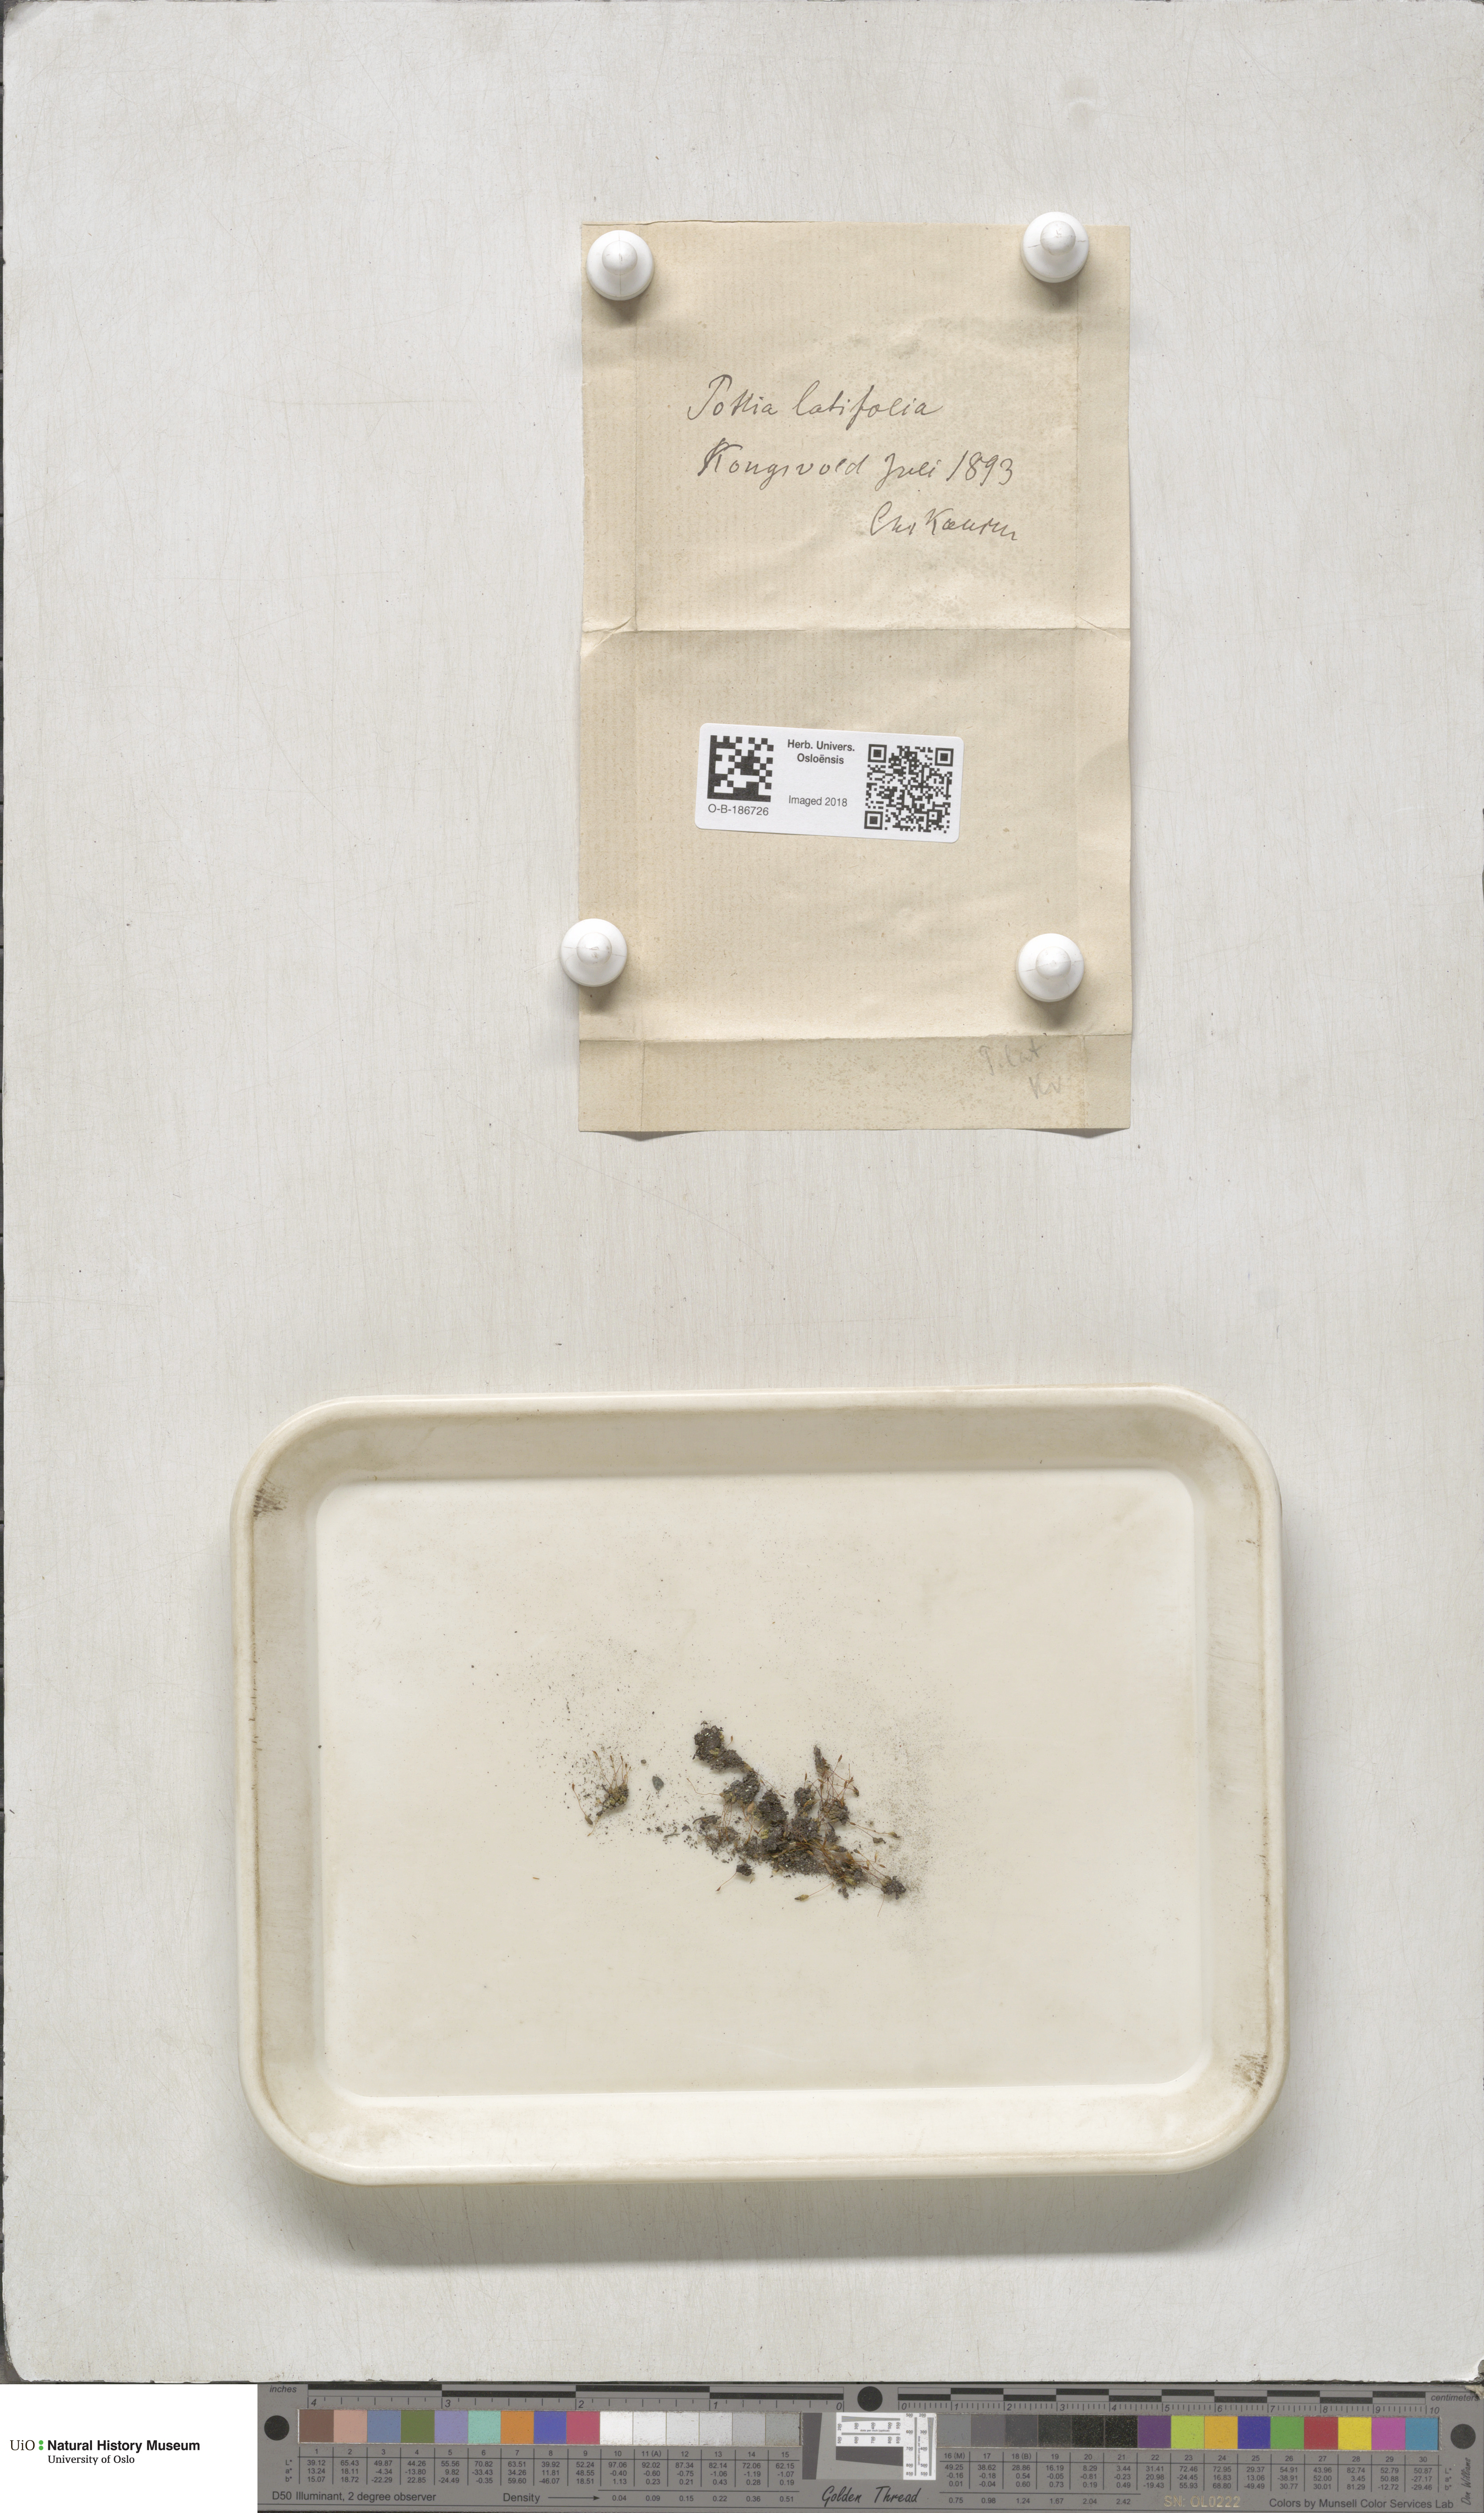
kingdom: Plantae
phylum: Bryophyta
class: Bryopsida
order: Pottiales
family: Pottiaceae
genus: Stegonia
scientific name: Stegonia latifolia
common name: Hood-leaved screw-moss
